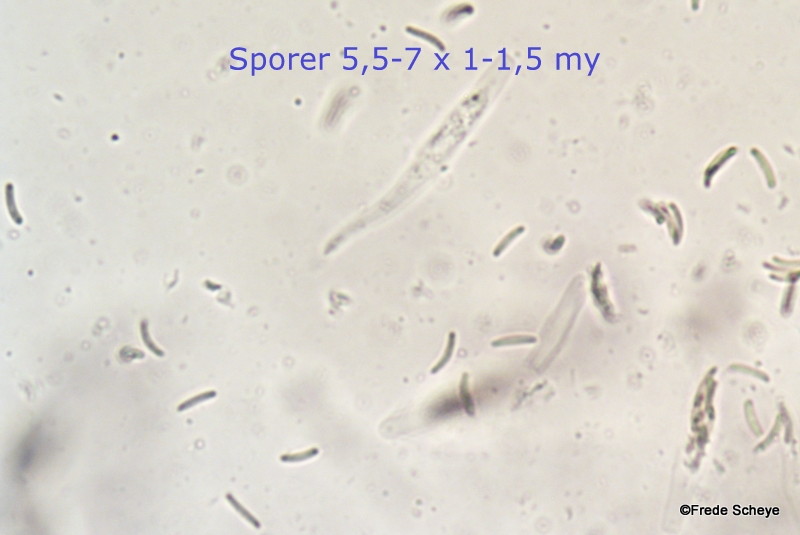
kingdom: Fungi
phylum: Ascomycota
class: Sordariomycetes
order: Xylariales
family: Diatrypaceae
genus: Diatrype
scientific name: Diatrype bullata
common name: pile-kulskorpe
